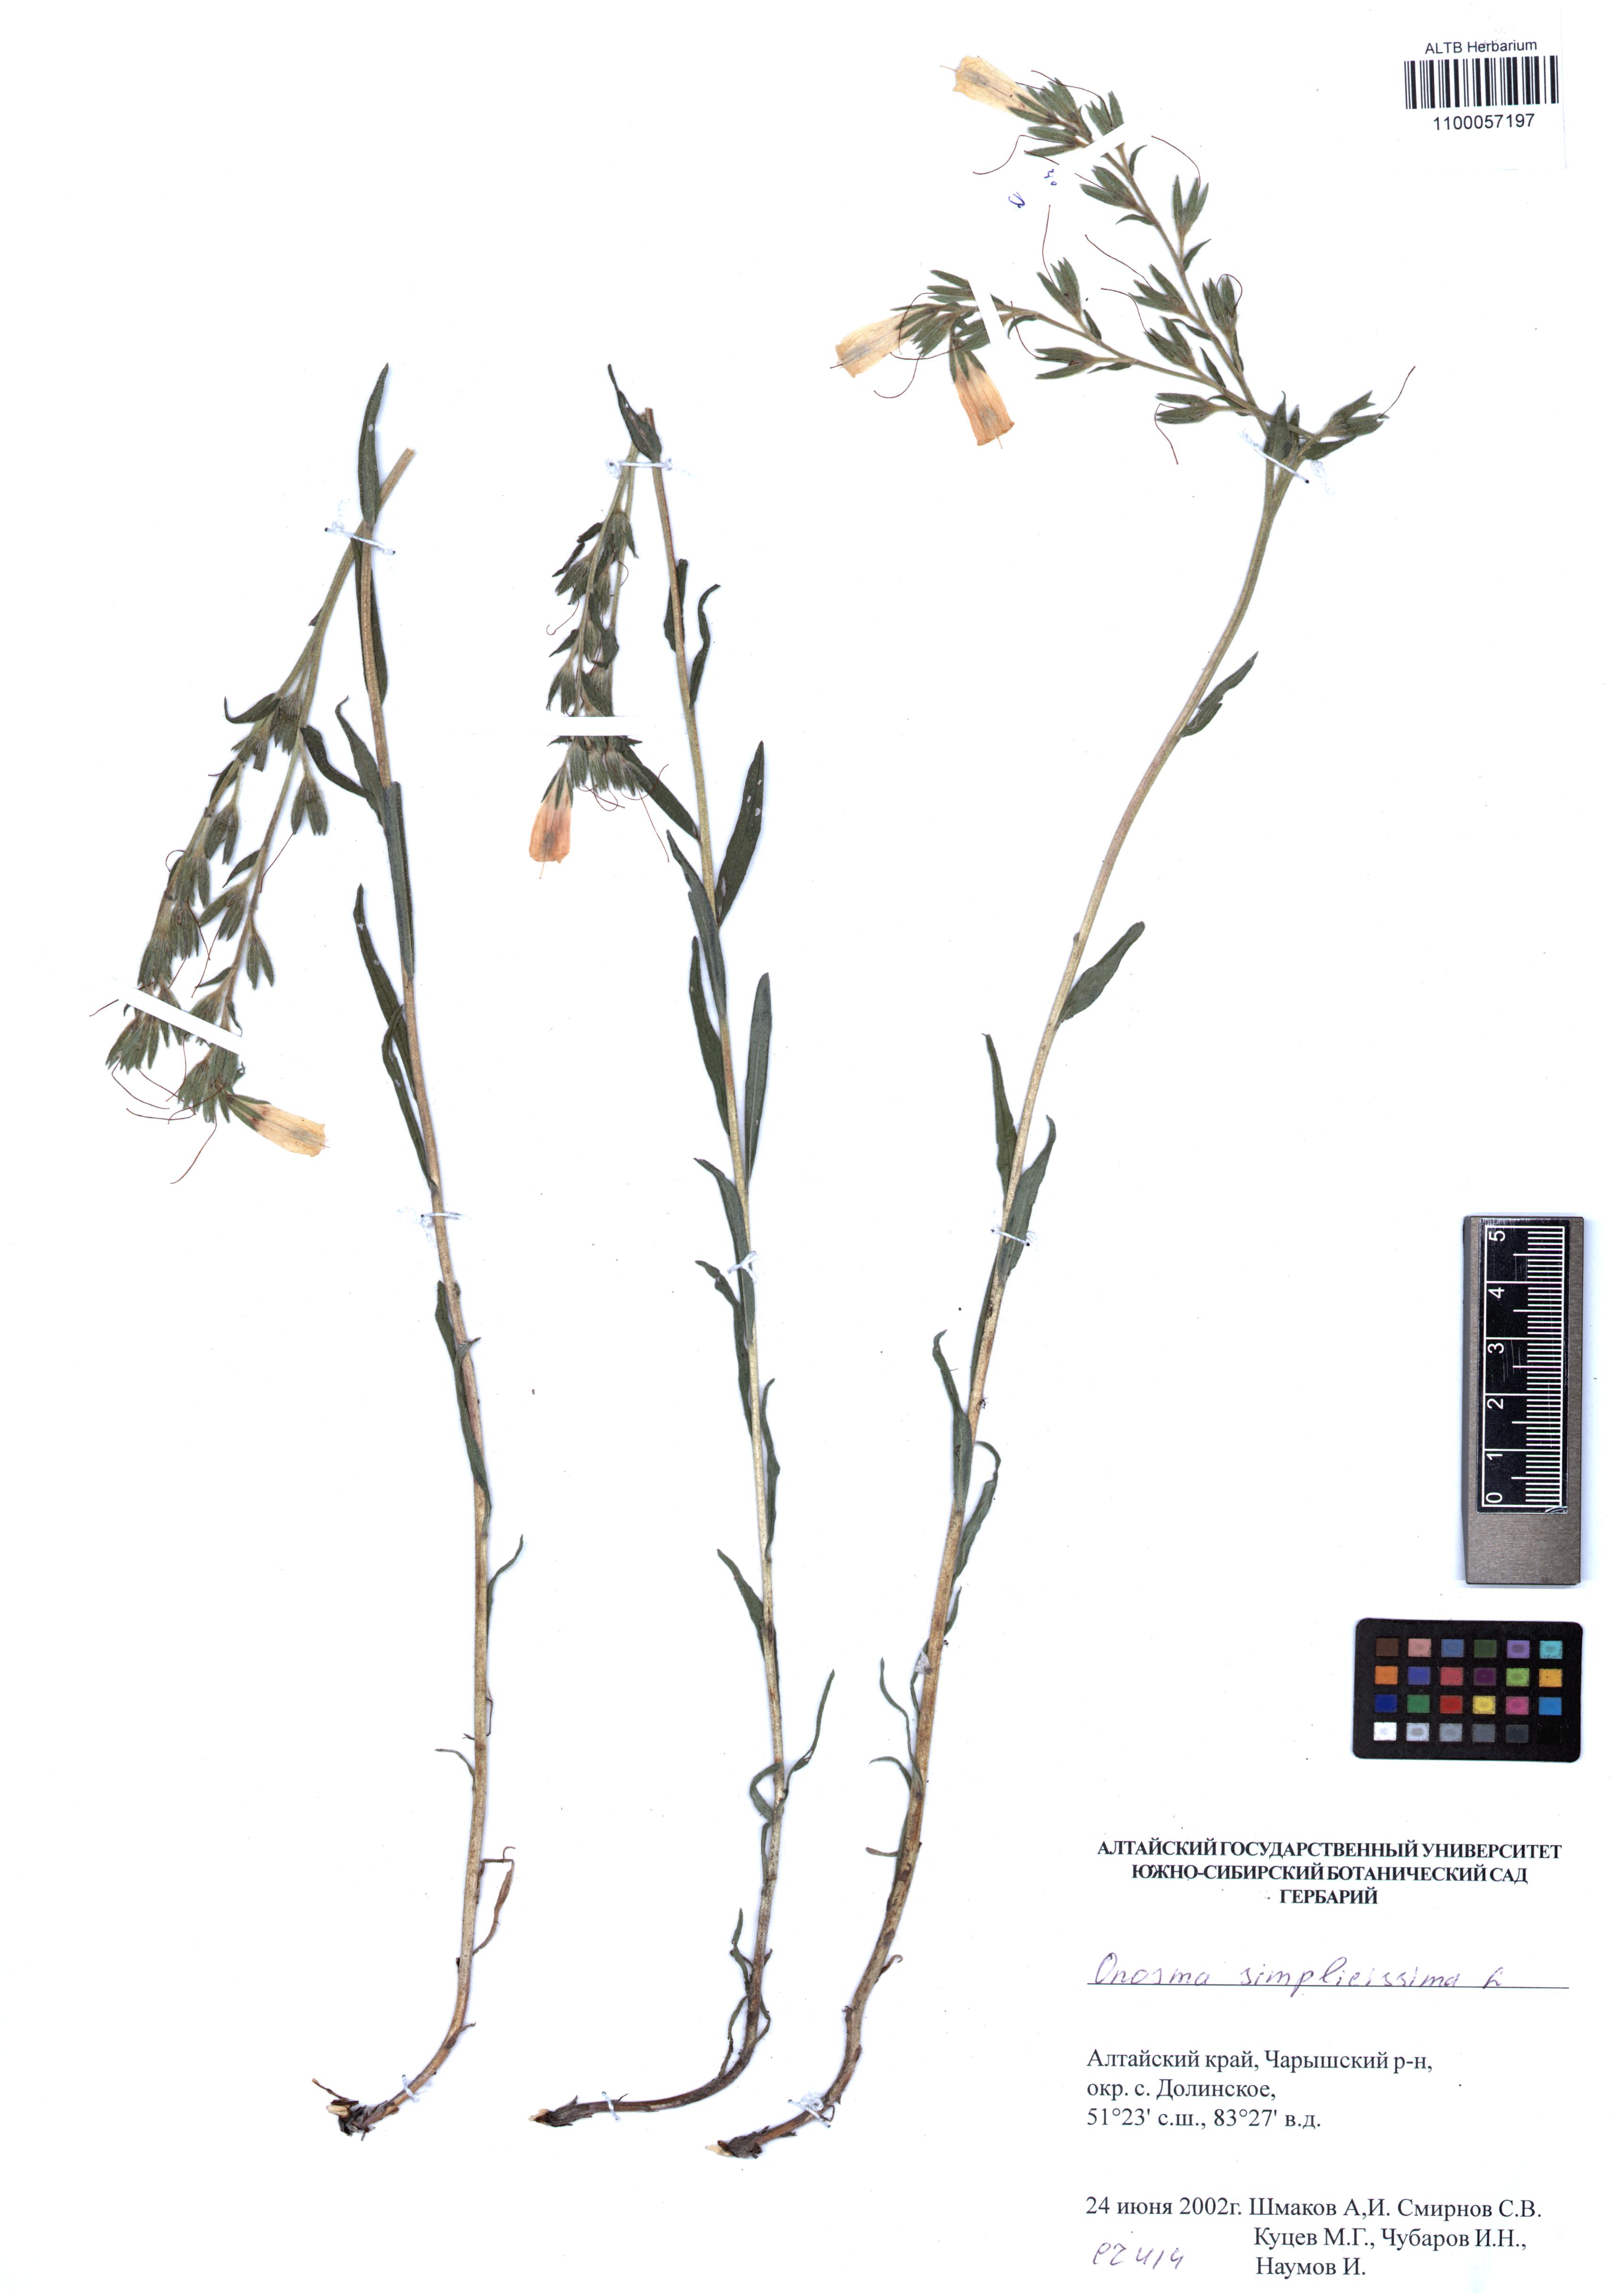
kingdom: Plantae
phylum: Tracheophyta
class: Magnoliopsida
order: Boraginales
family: Boraginaceae
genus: Onosma
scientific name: Onosma simplicissima
